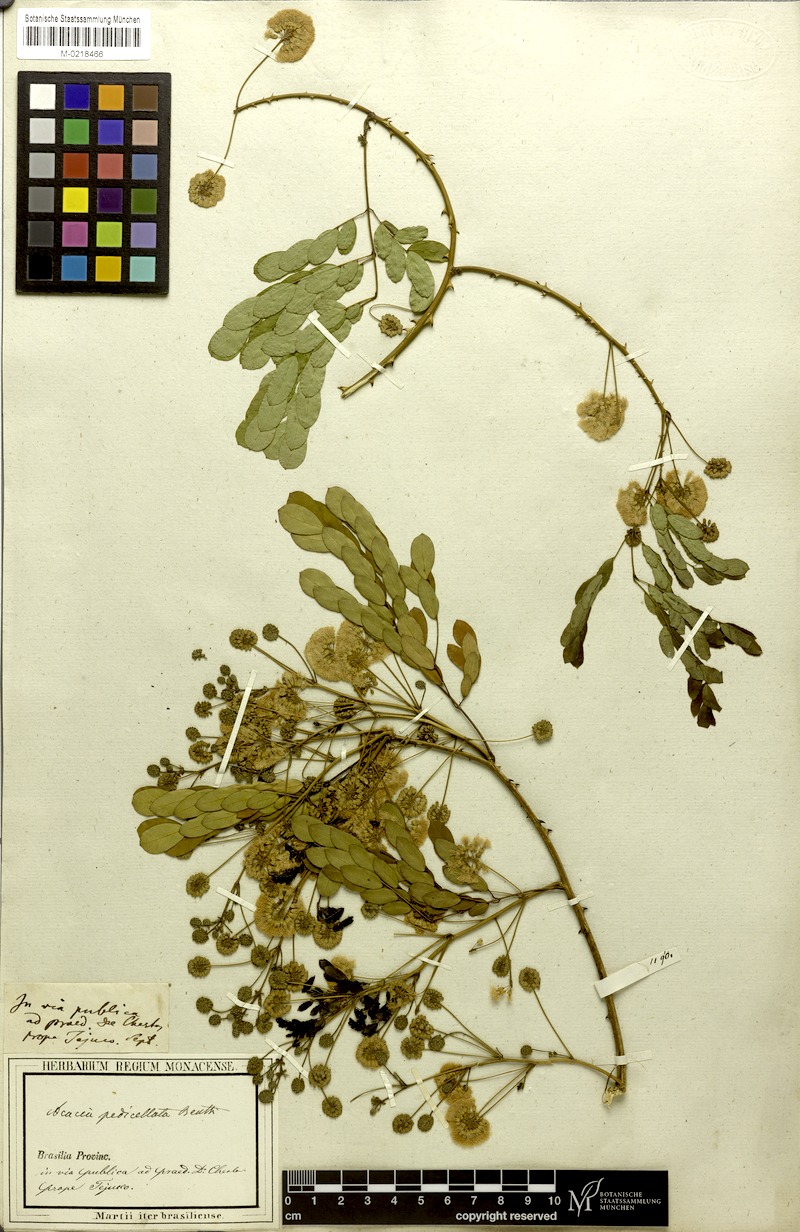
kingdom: Plantae
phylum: Tracheophyta
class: Magnoliopsida
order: Fabales
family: Fabaceae
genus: Senegalia
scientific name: Senegalia pedicellata
